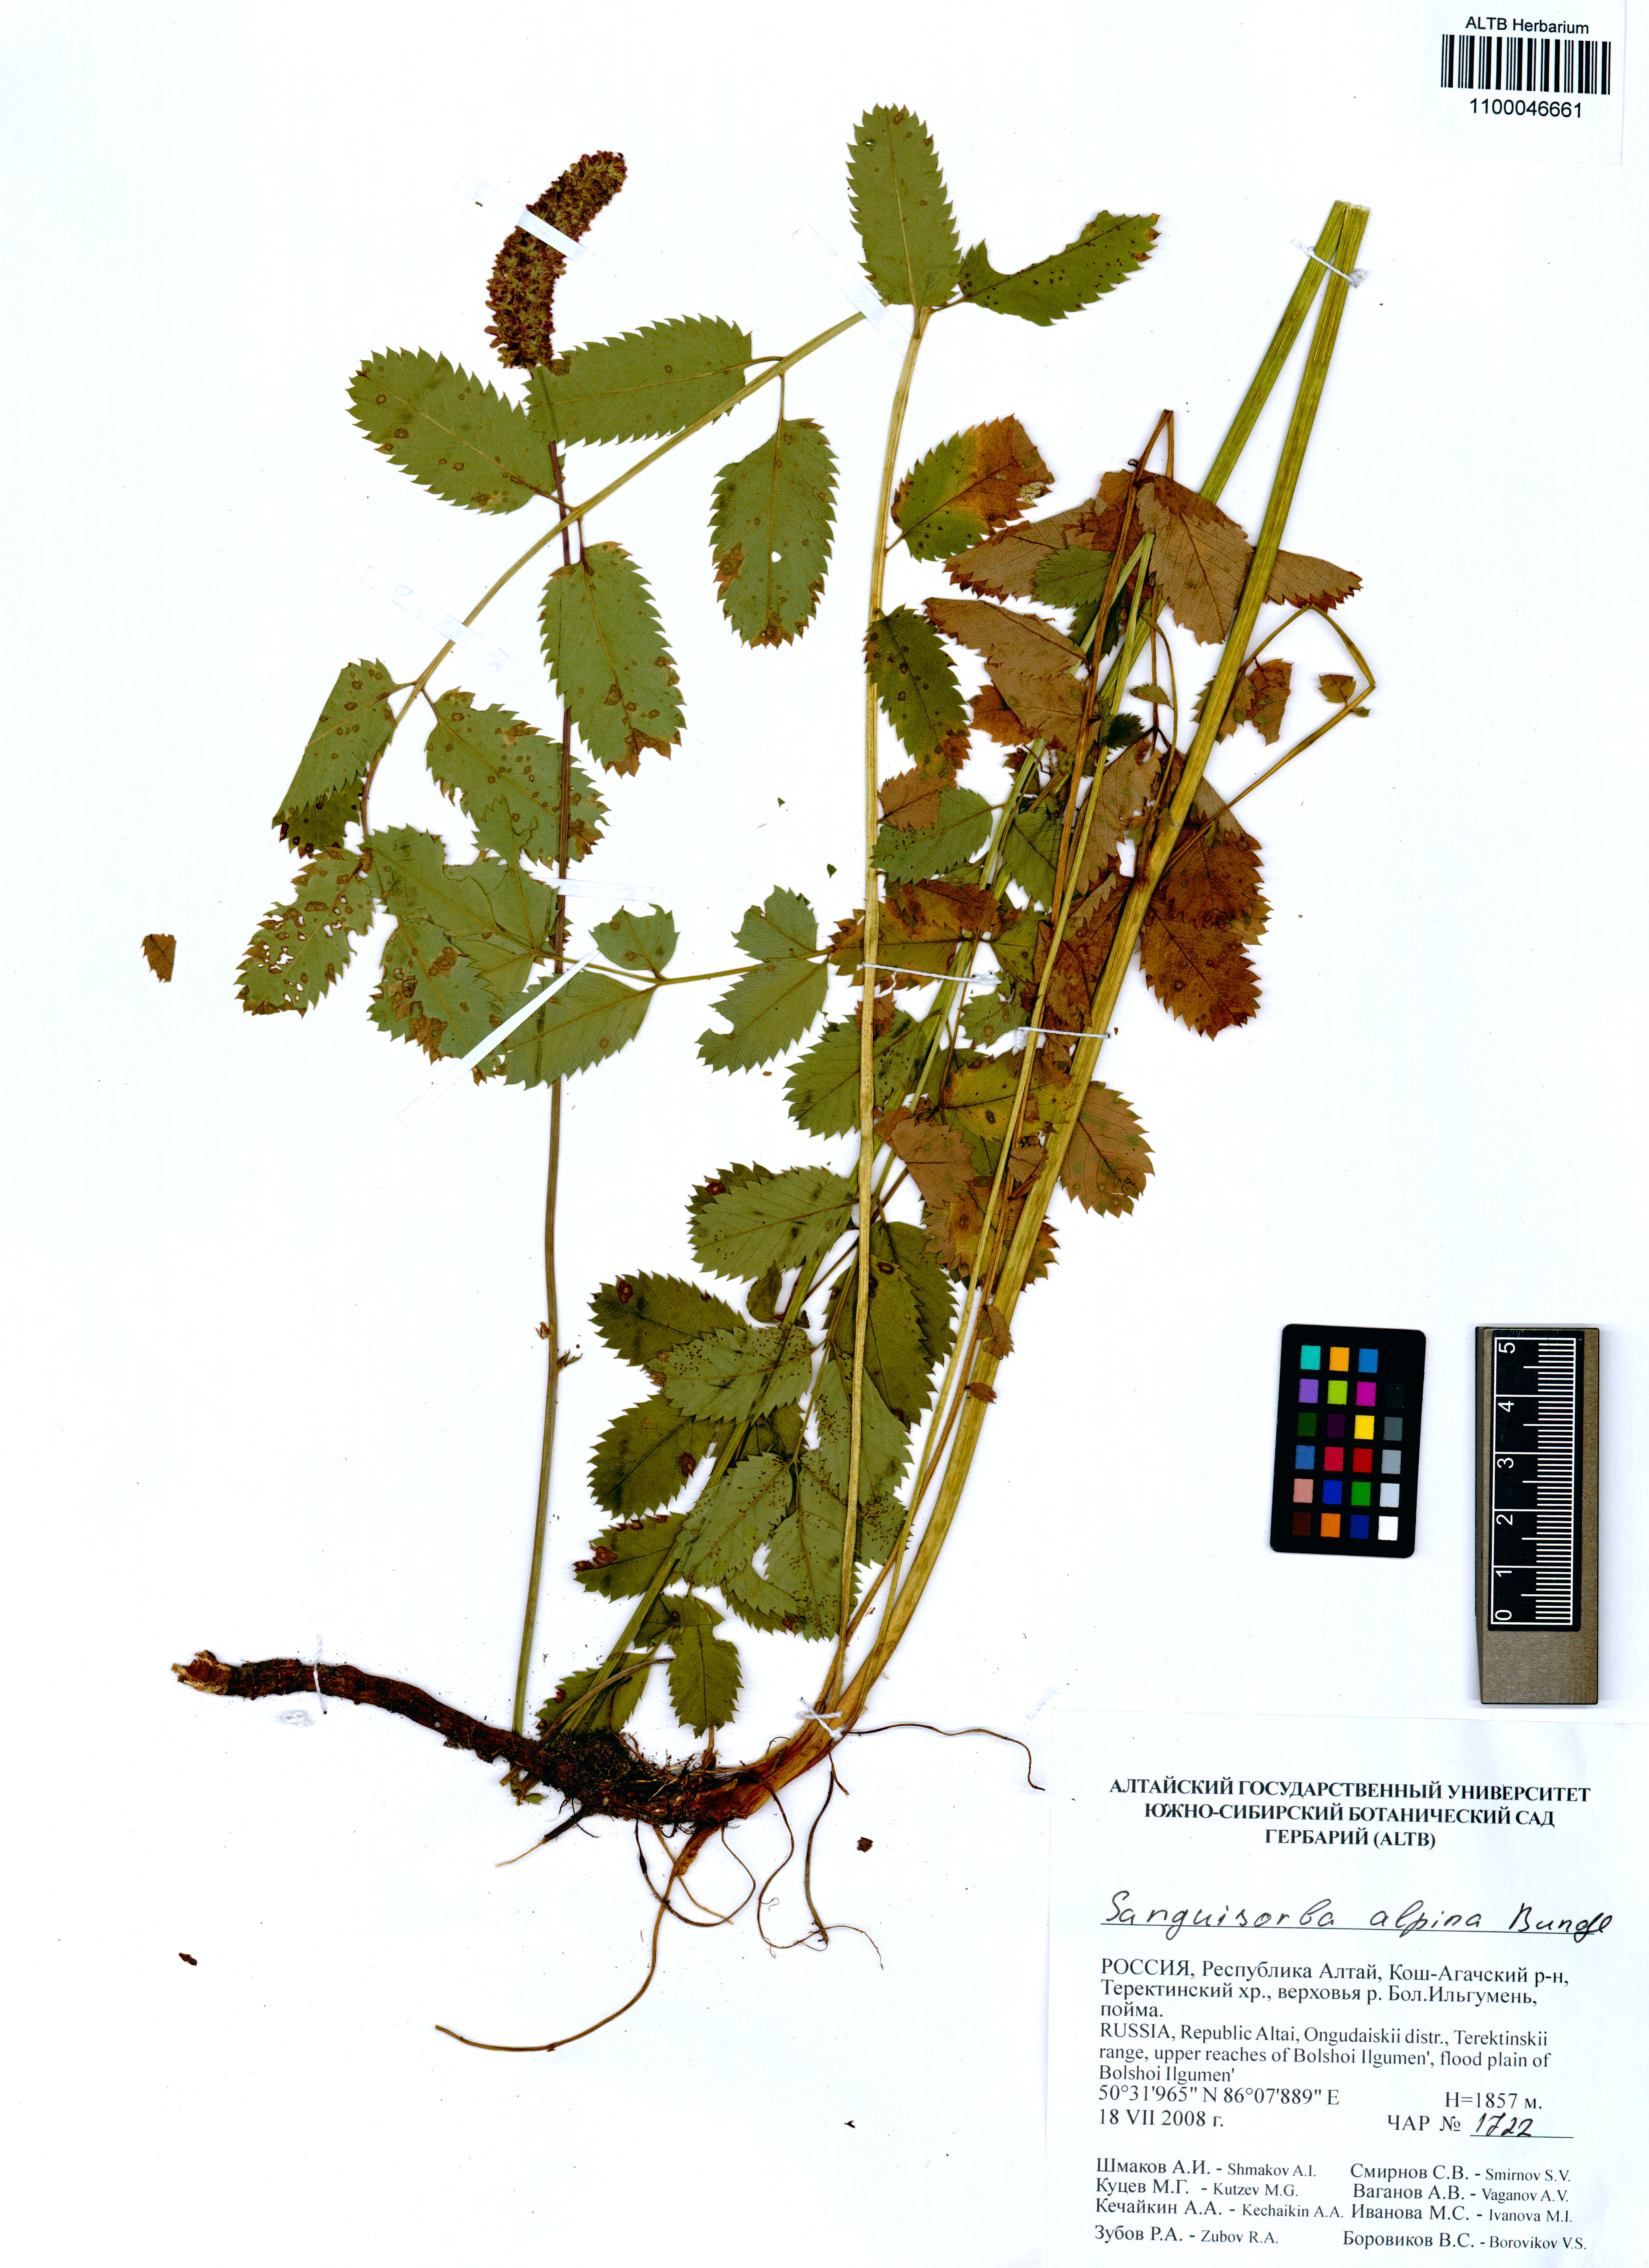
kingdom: Plantae
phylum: Tracheophyta
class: Magnoliopsida
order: Rosales
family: Rosaceae
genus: Sanguisorba
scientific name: Sanguisorba alpina
